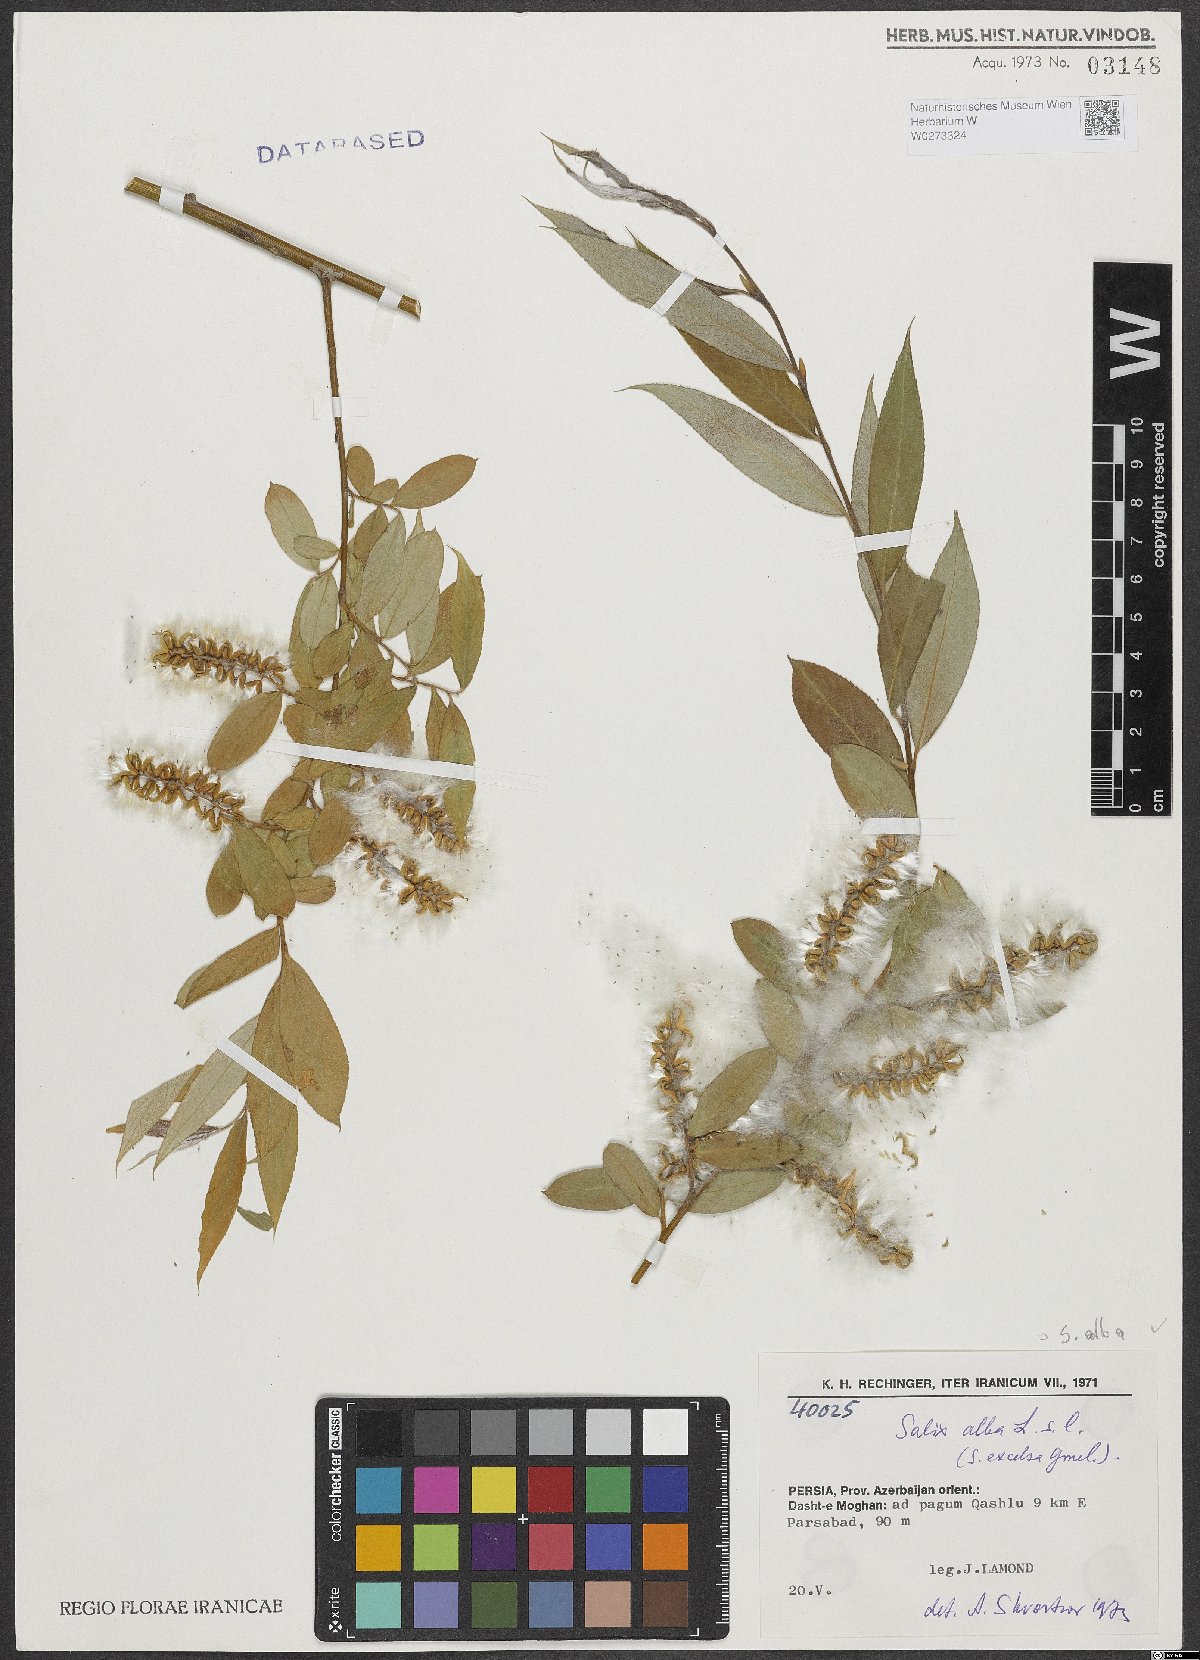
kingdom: Plantae
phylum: Tracheophyta
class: Magnoliopsida
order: Malpighiales
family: Salicaceae
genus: Salix
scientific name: Salix alba
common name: White willow
